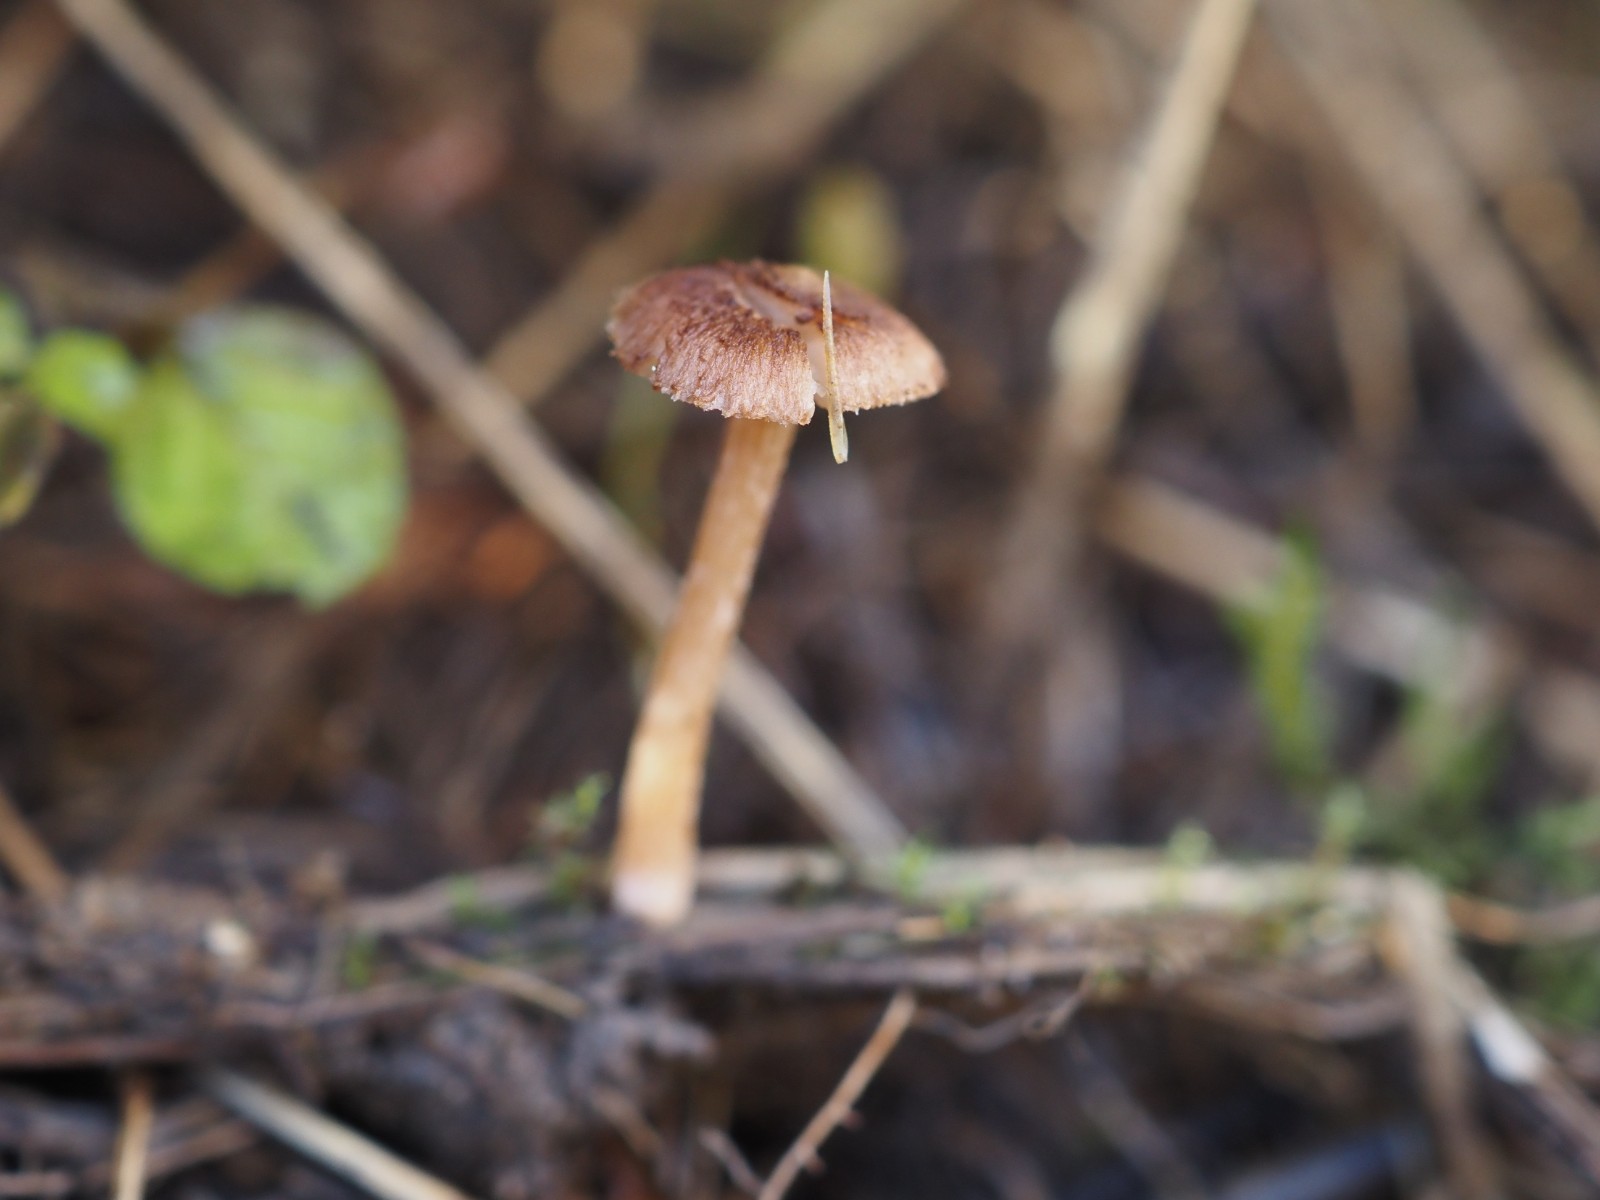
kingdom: Fungi
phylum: Basidiomycota
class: Agaricomycetes
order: Agaricales
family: Inocybaceae
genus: Inocybe
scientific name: Inocybe
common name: trævlhat
